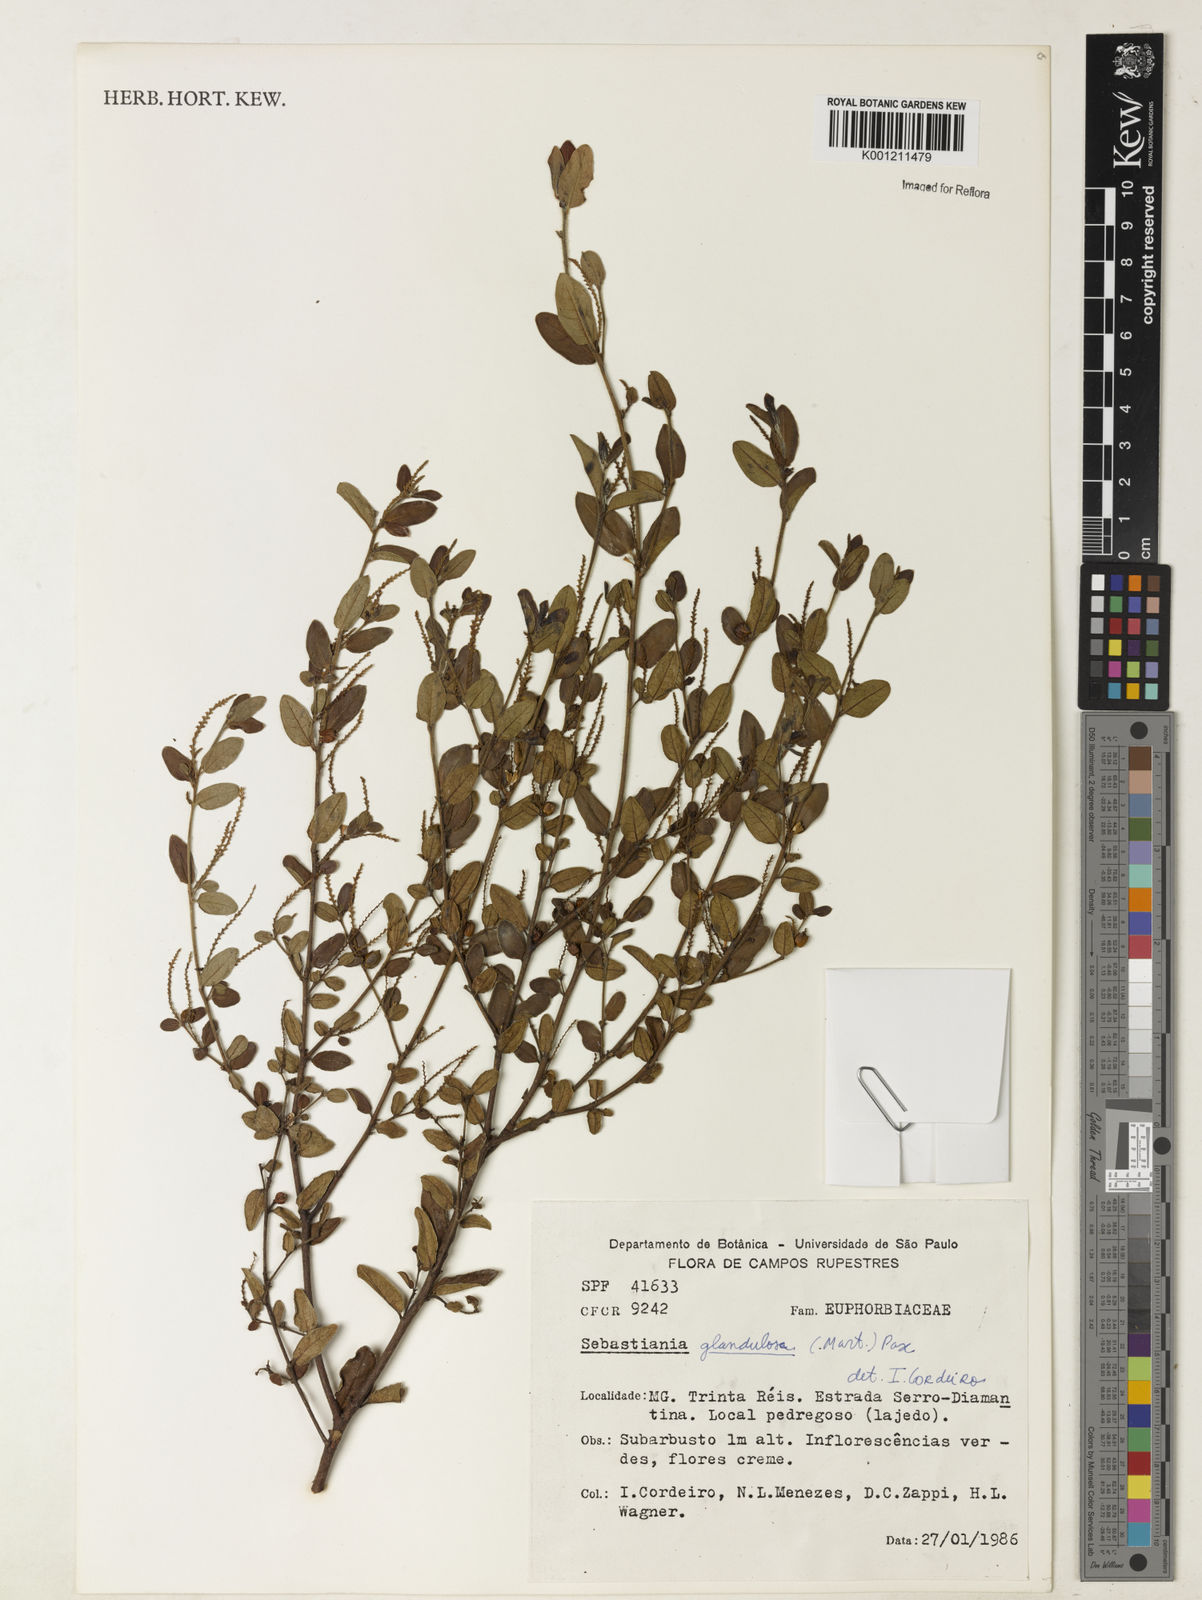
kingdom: Plantae
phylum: Tracheophyta
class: Magnoliopsida
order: Malpighiales
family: Euphorbiaceae
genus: Microstachys
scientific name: Microstachys glandulosa
